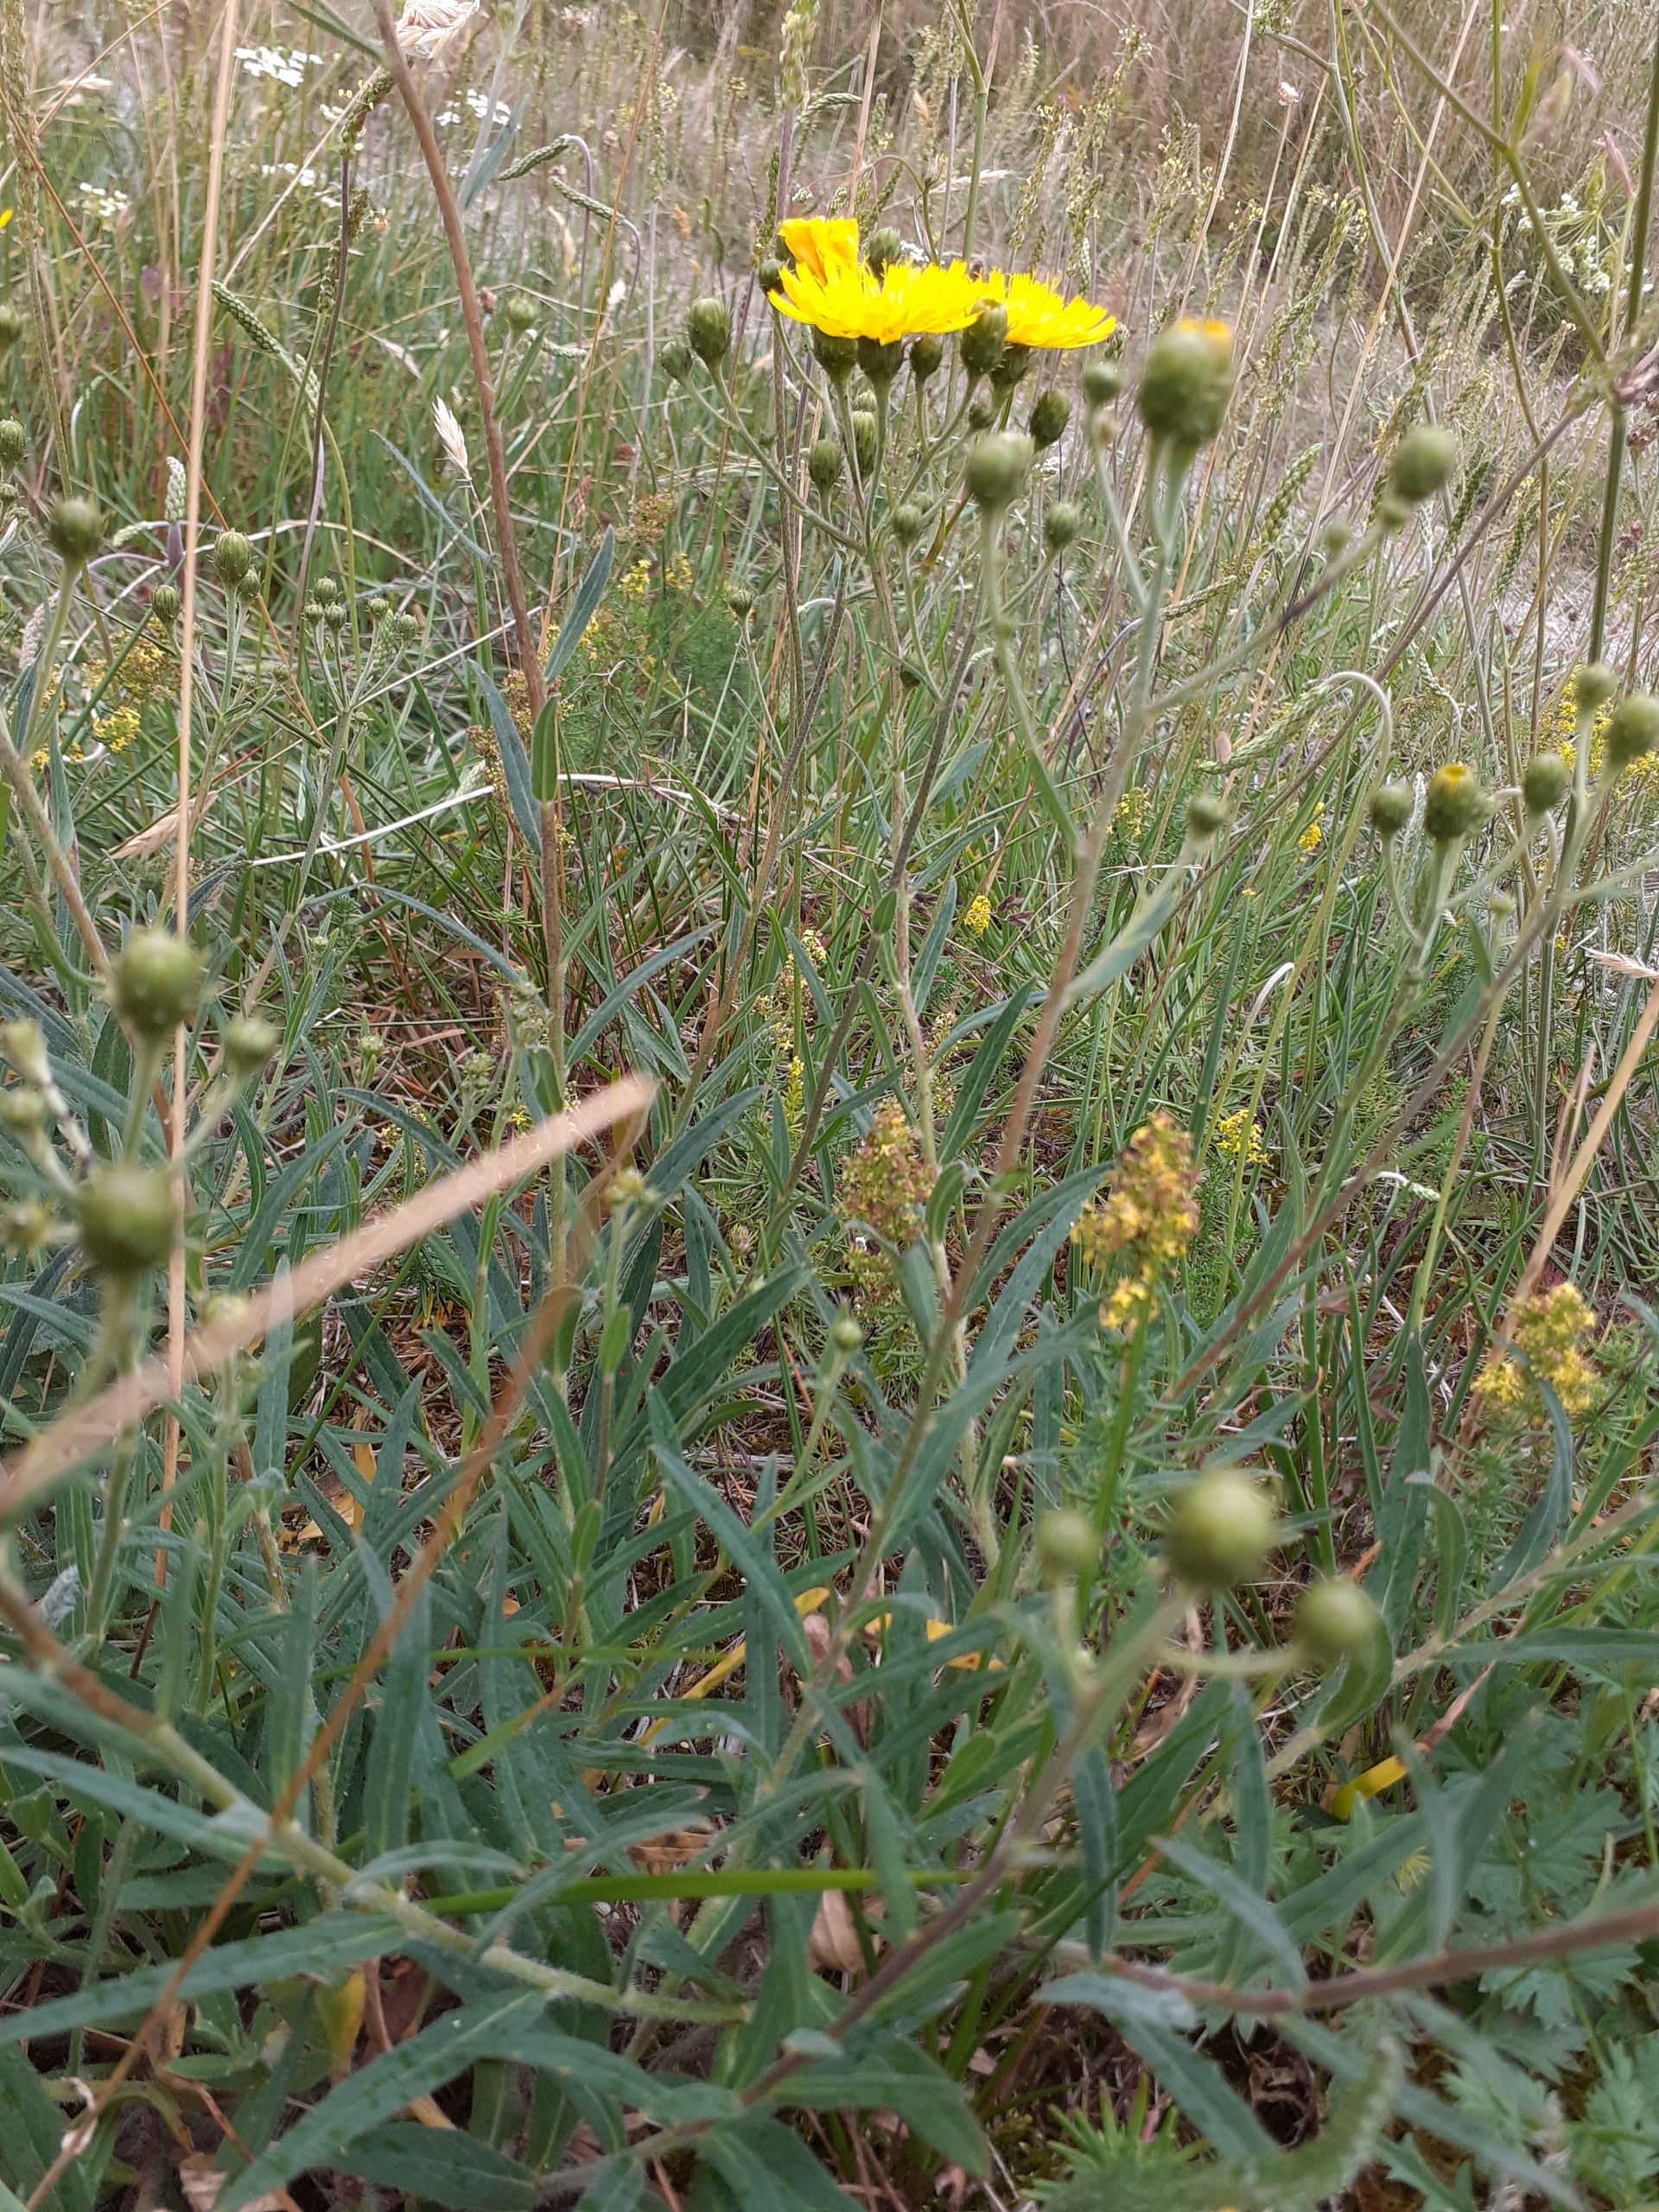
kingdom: Plantae
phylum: Tracheophyta
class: Magnoliopsida
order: Asterales
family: Asteraceae
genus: Hieracium
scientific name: Hieracium umbellatum
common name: Smalbladet høgeurt
